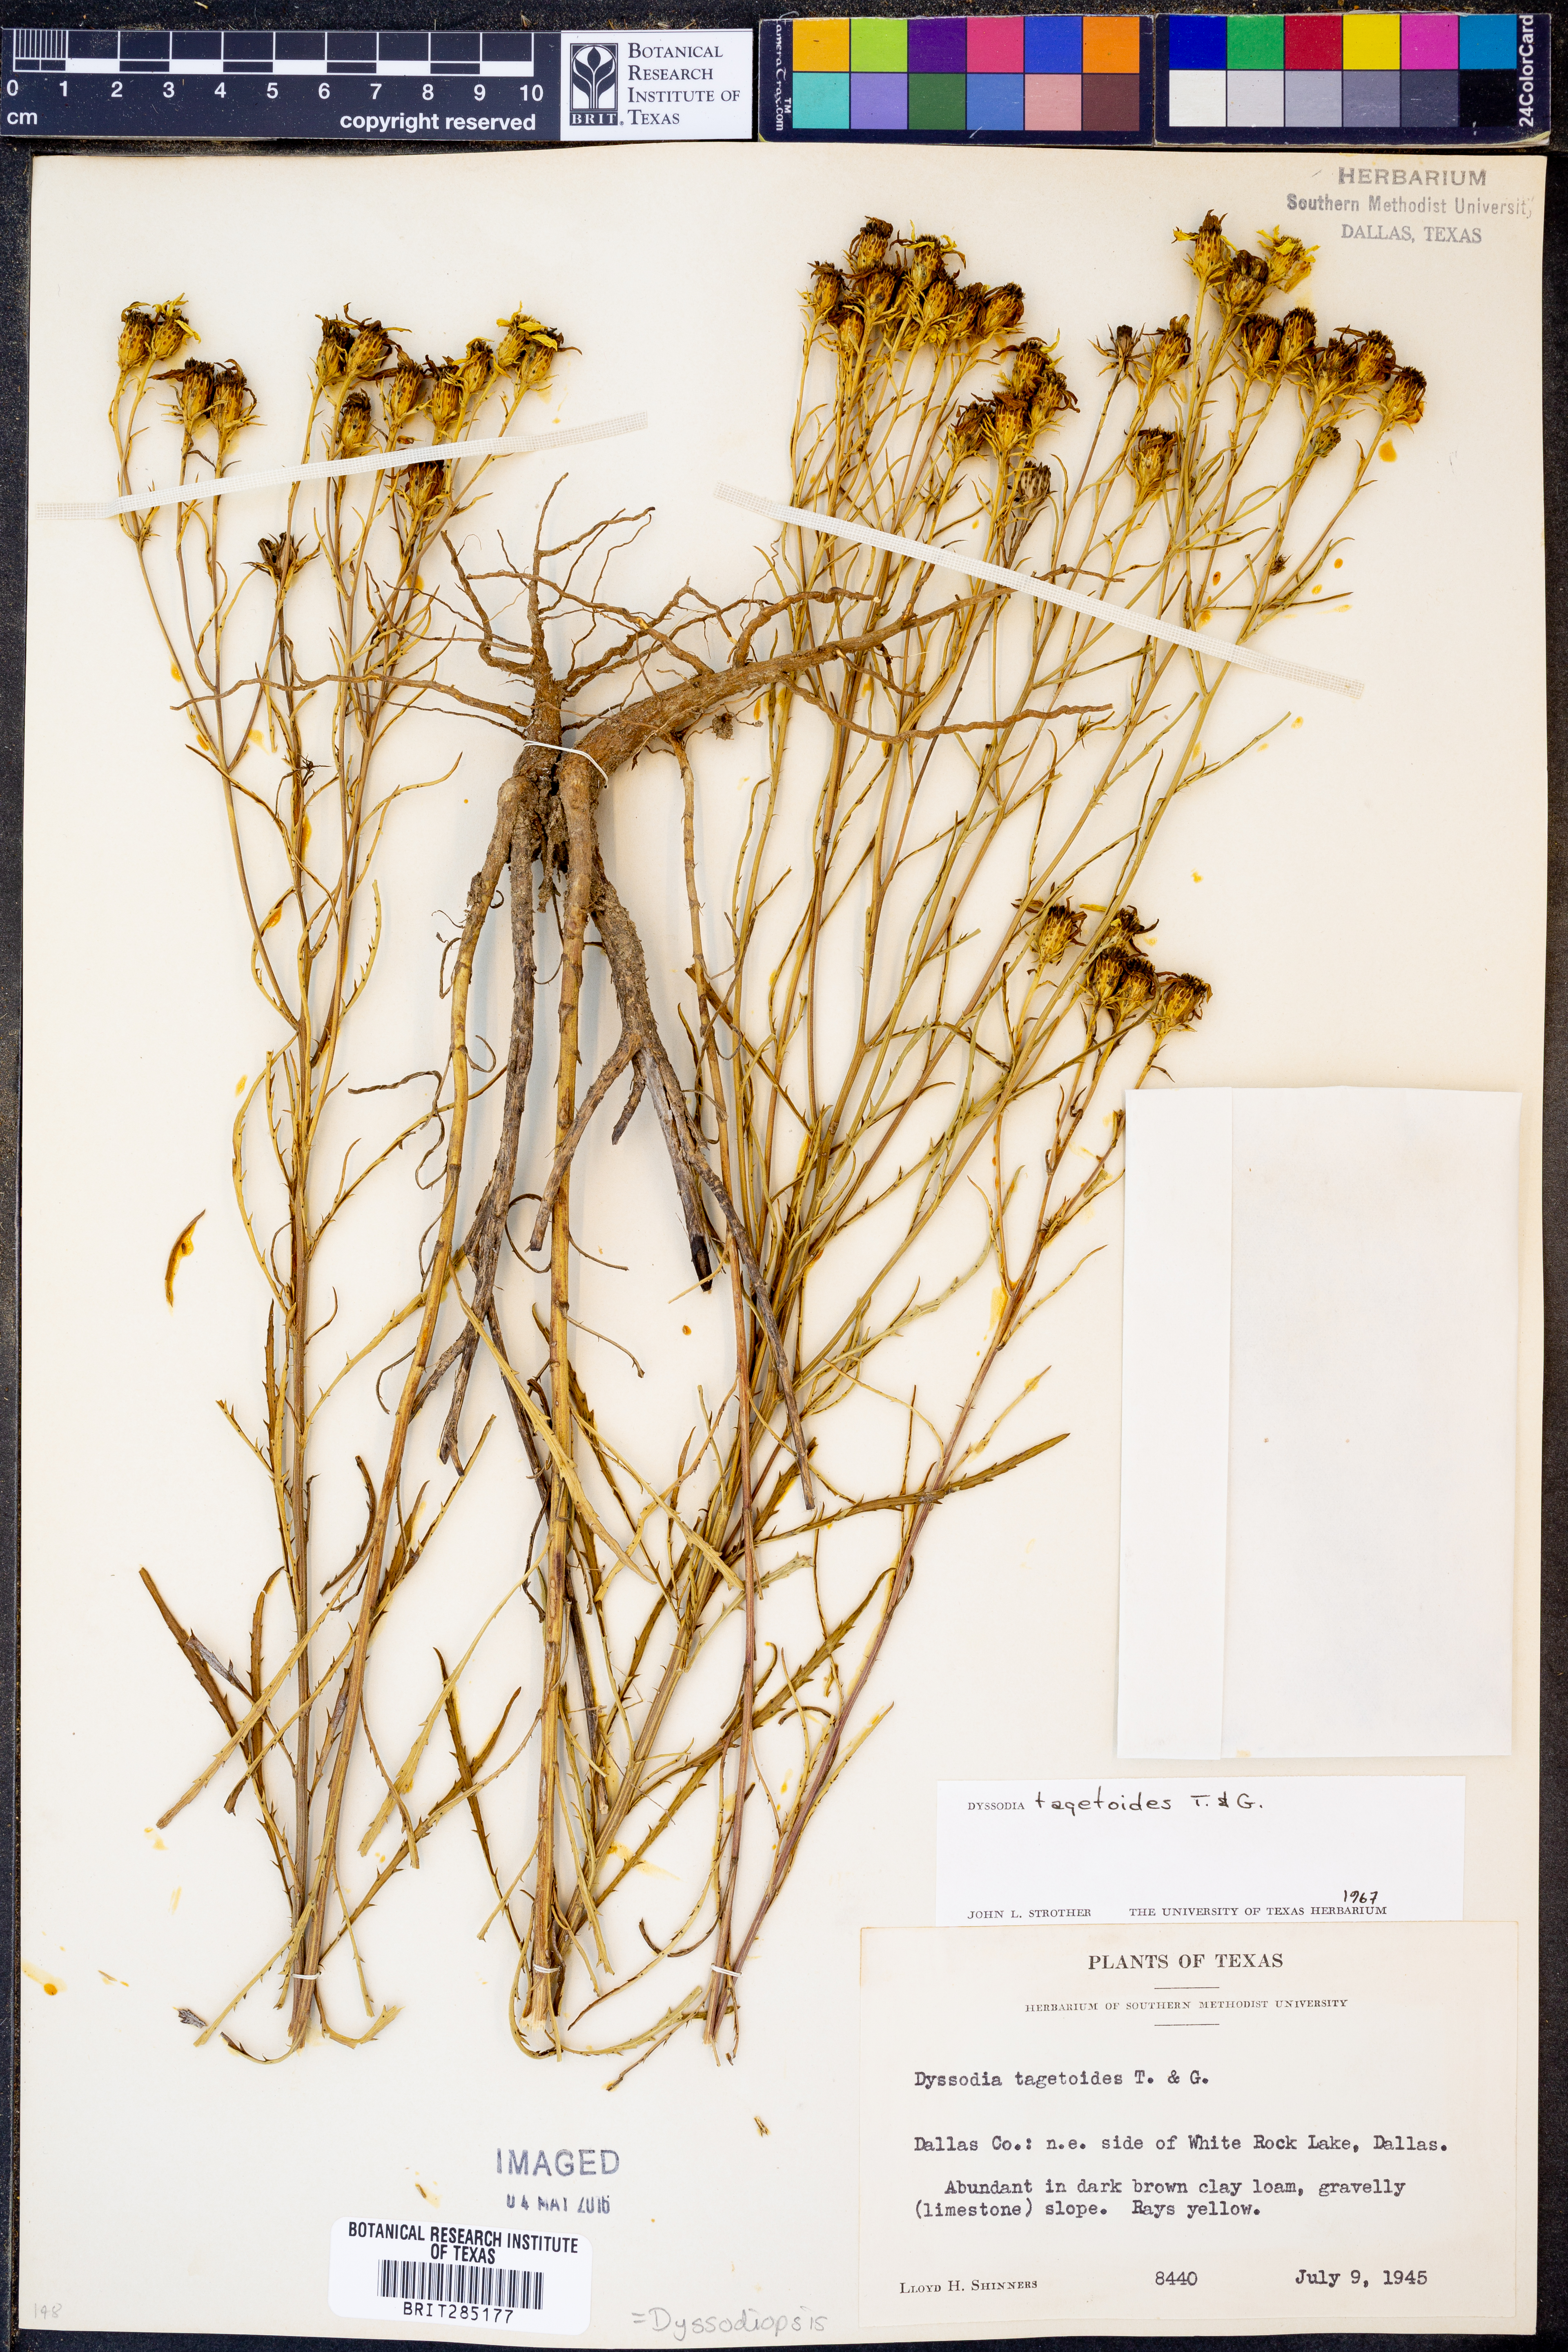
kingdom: Plantae
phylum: Tracheophyta
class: Magnoliopsida
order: Asterales
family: Asteraceae
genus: Dysodiopsis
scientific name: Dysodiopsis tagetoides
